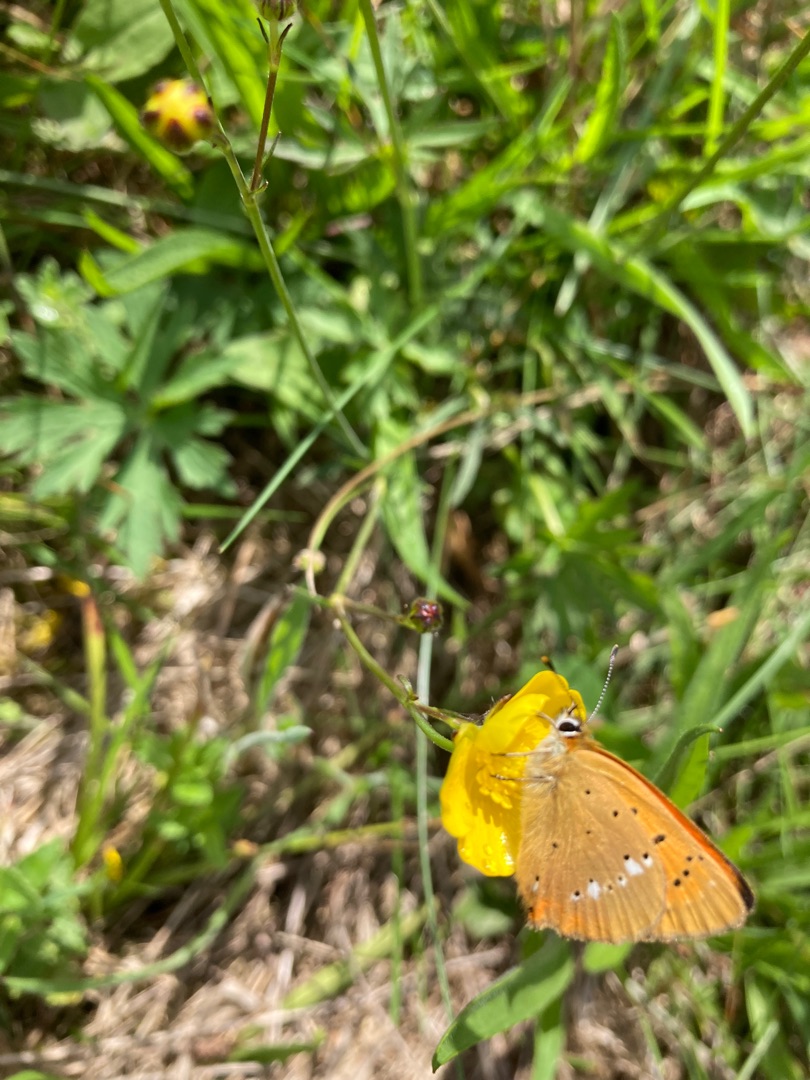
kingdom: Animalia
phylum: Arthropoda
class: Insecta
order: Lepidoptera
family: Lycaenidae
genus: Lycaena
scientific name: Lycaena virgaureae
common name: Dukatsommerfugl
